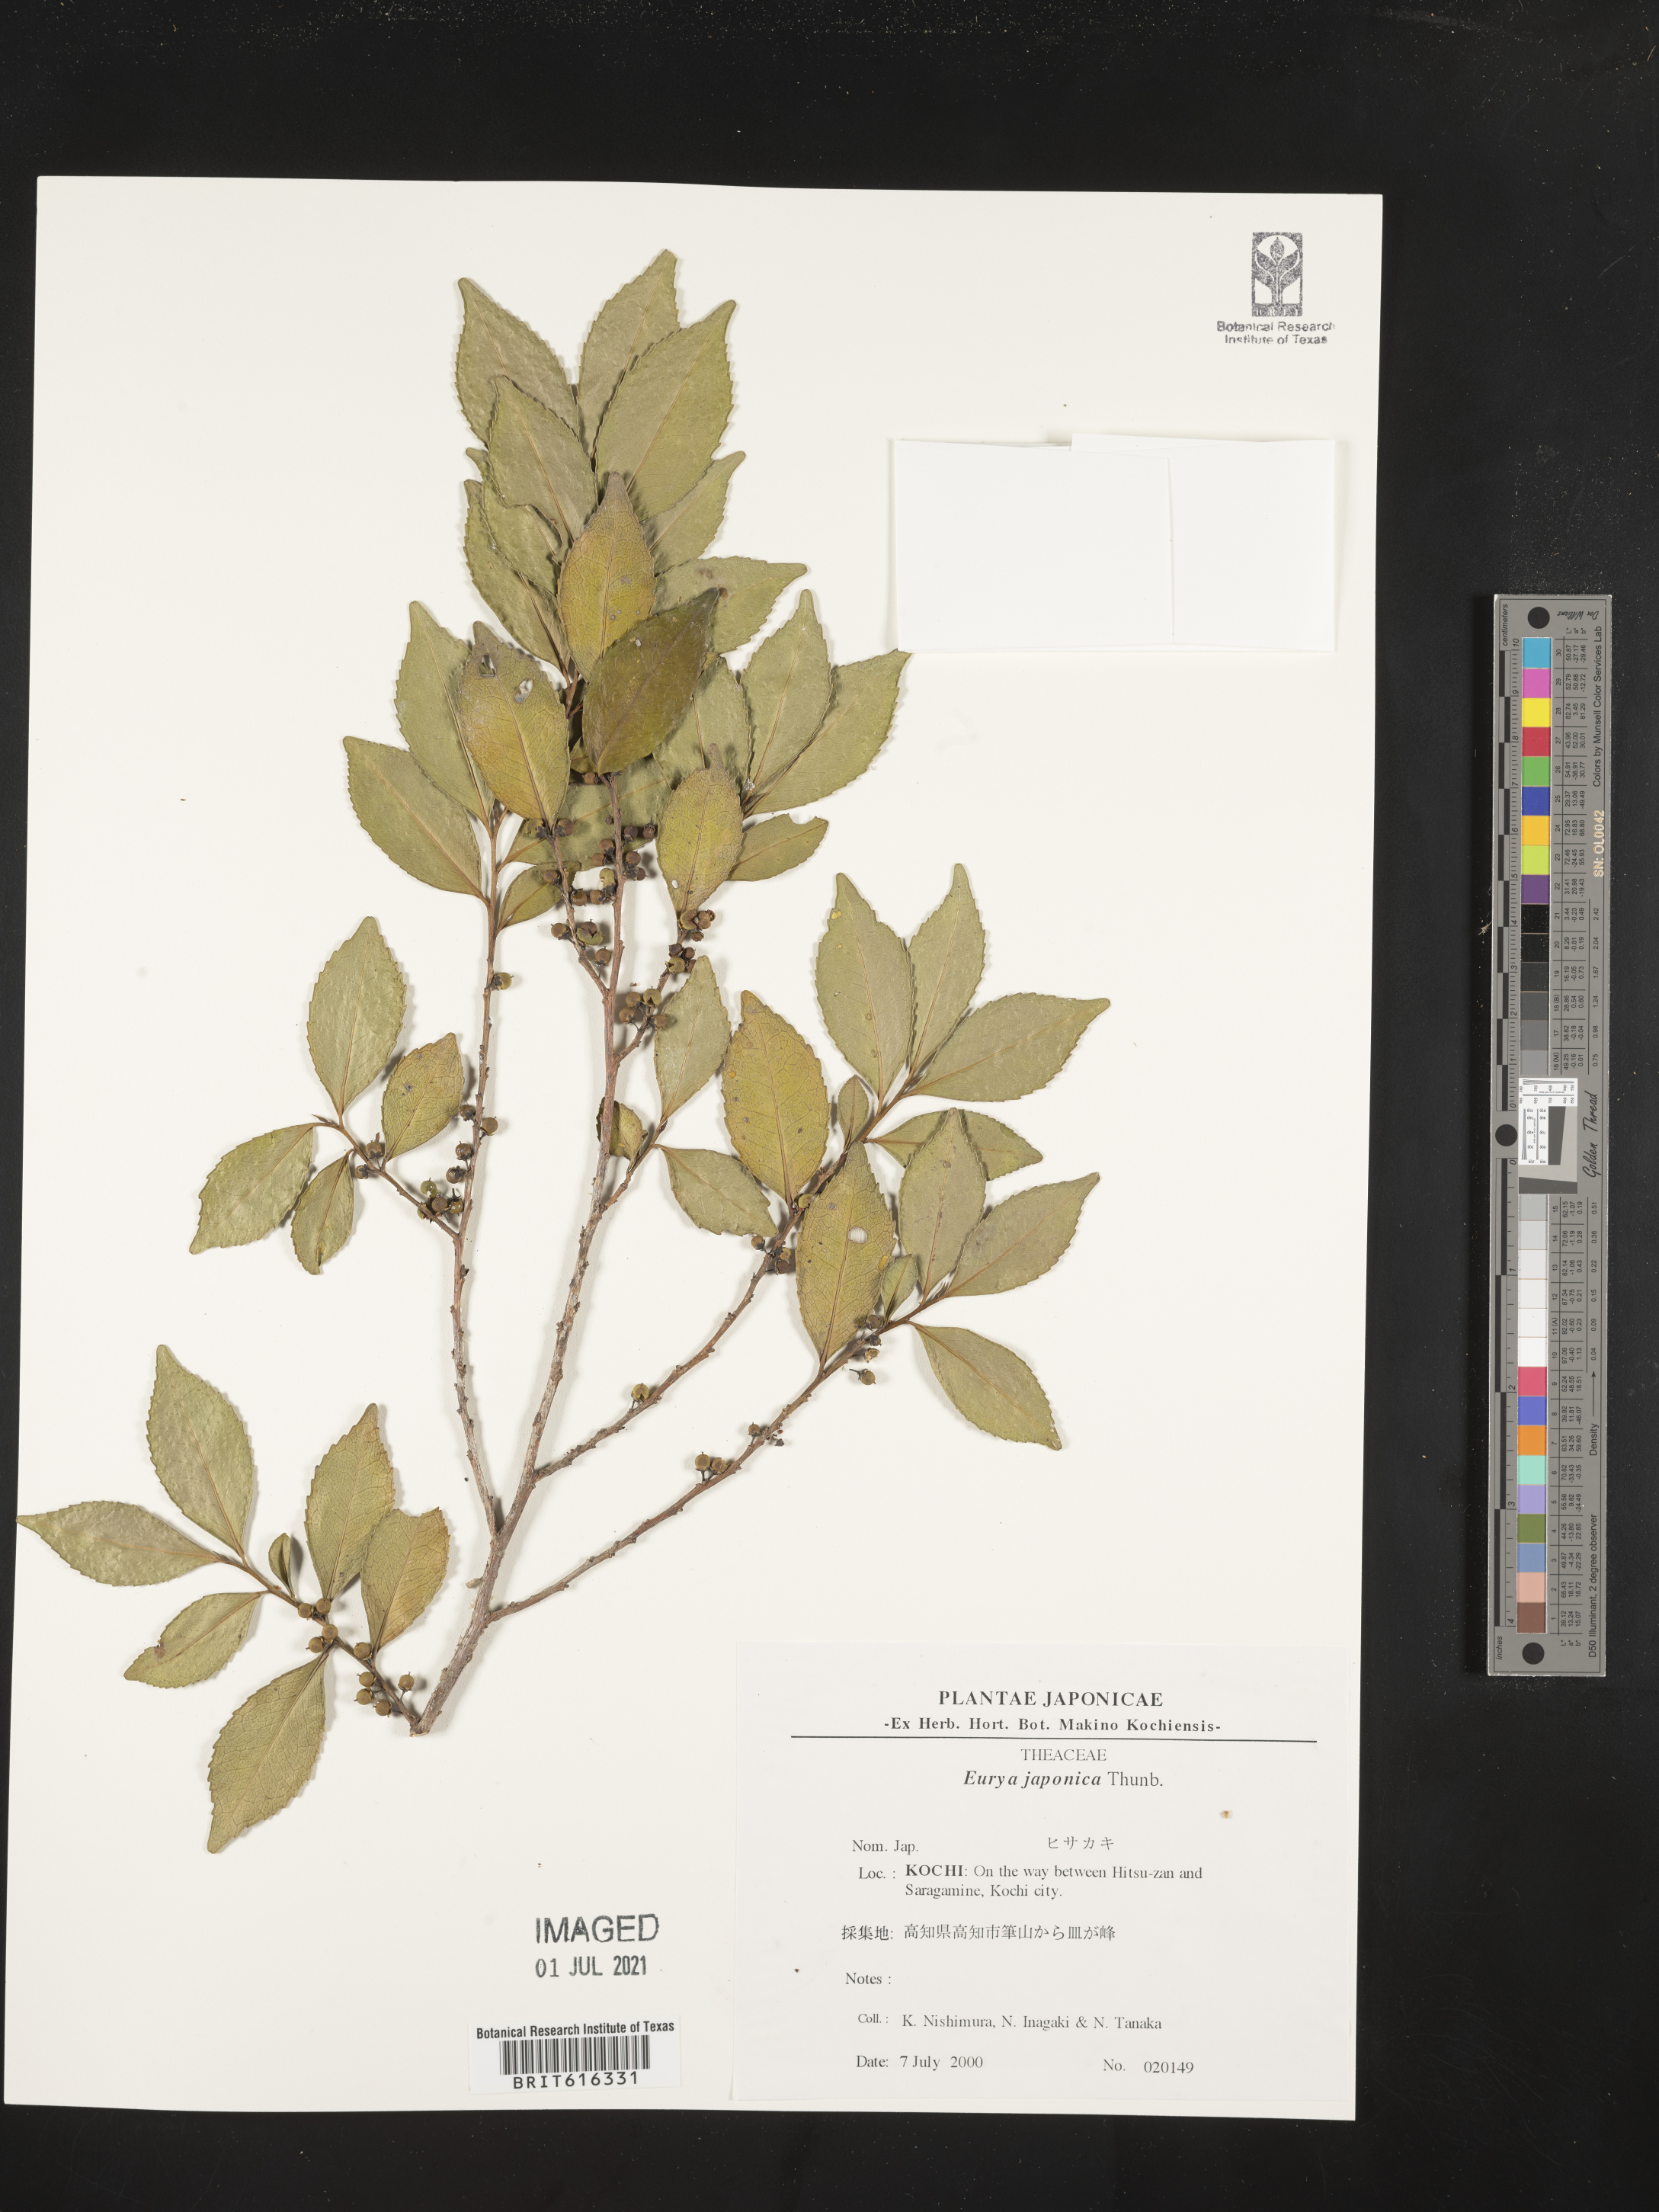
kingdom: Plantae
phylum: Tracheophyta
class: Magnoliopsida
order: Ericales
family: Pentaphylacaceae
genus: Eurya
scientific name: Eurya japonica
